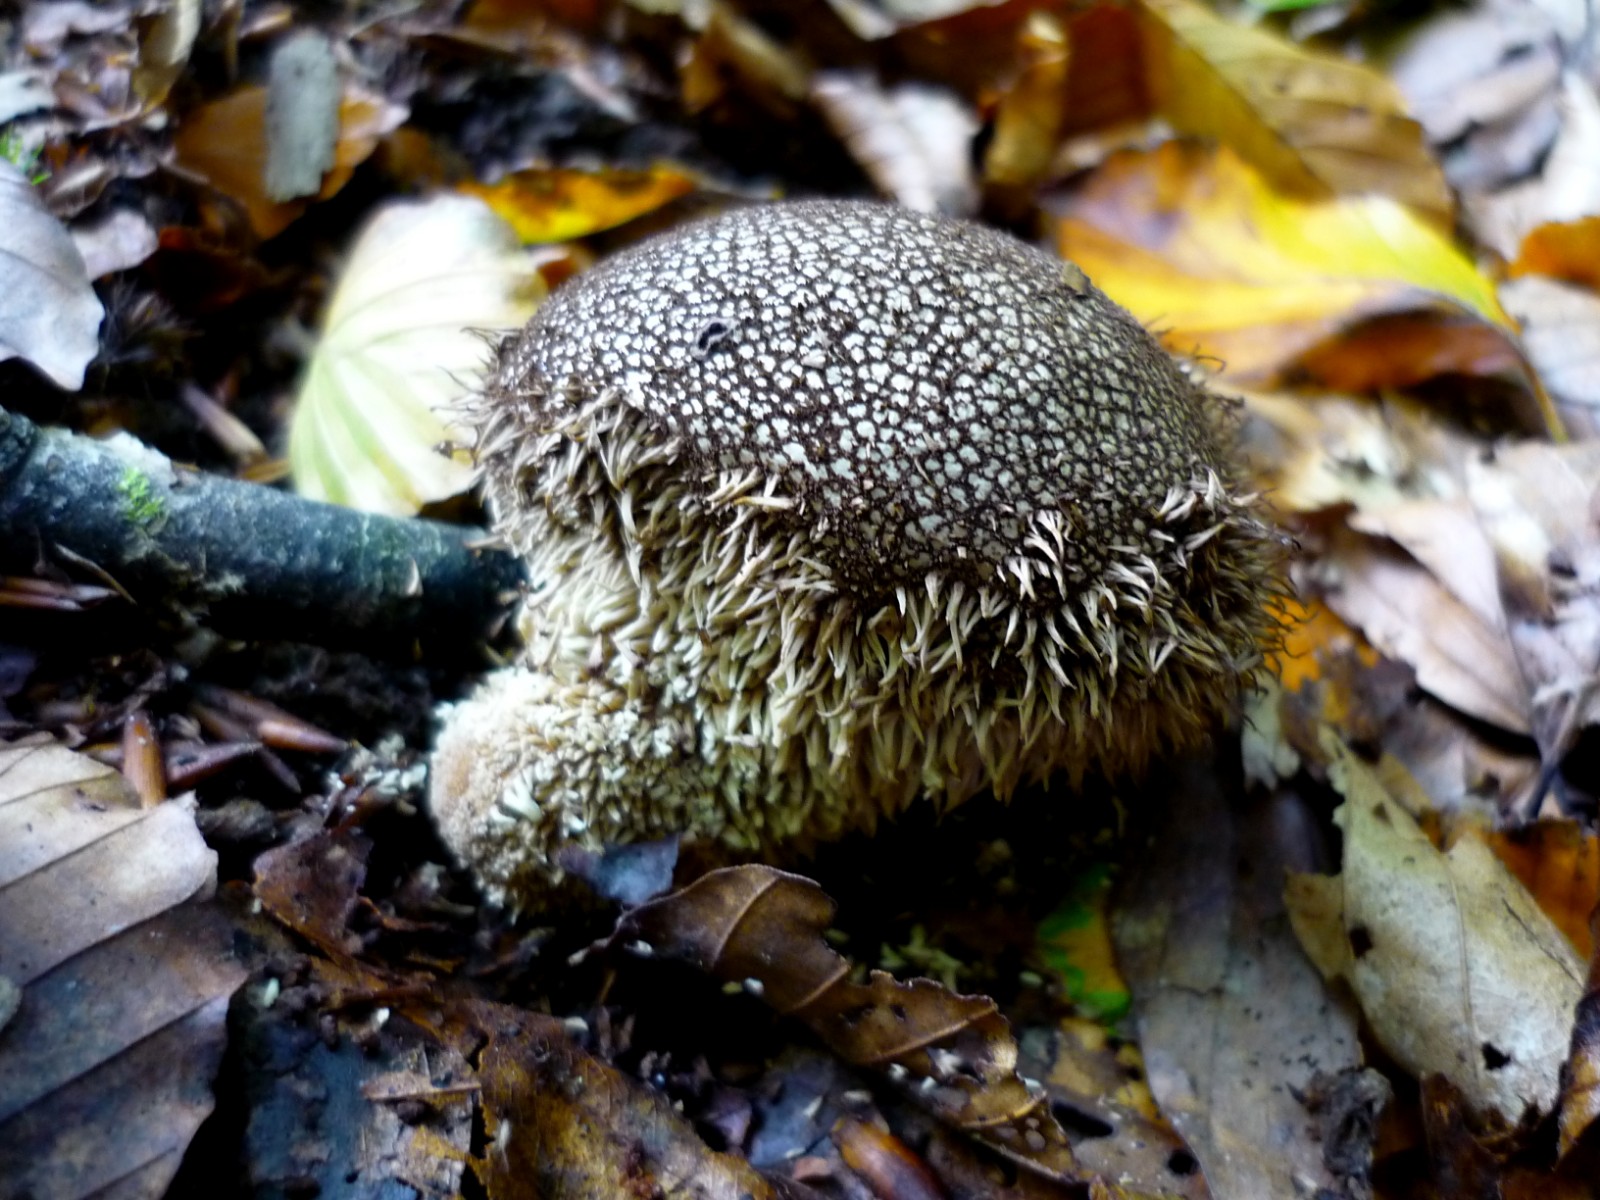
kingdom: Fungi
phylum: Basidiomycota
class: Agaricomycetes
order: Agaricales
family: Lycoperdaceae
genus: Lycoperdon
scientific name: Lycoperdon echinatum
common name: pindsvine-støvbold
